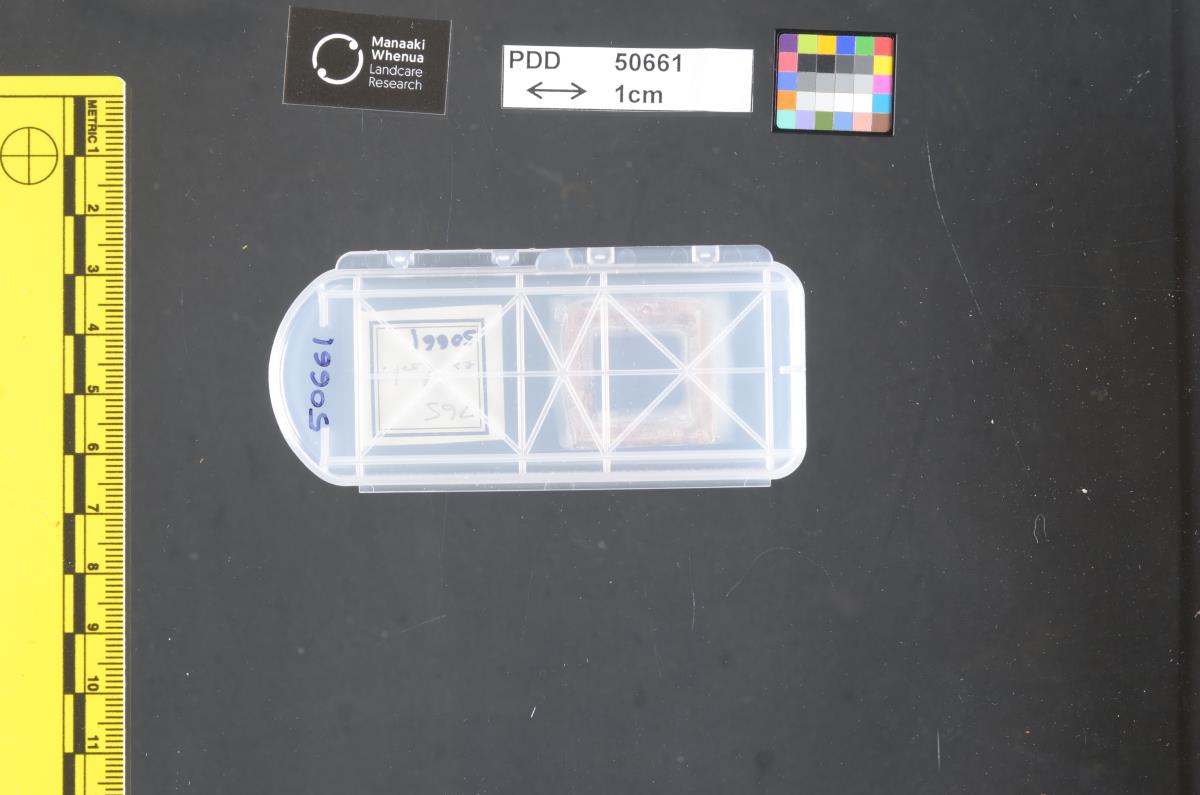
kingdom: Fungi
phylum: Ascomycota
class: Dothideomycetes
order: Mycosphaerellales
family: Mycosphaerellaceae
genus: Periconiella
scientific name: Periconiella phormii
